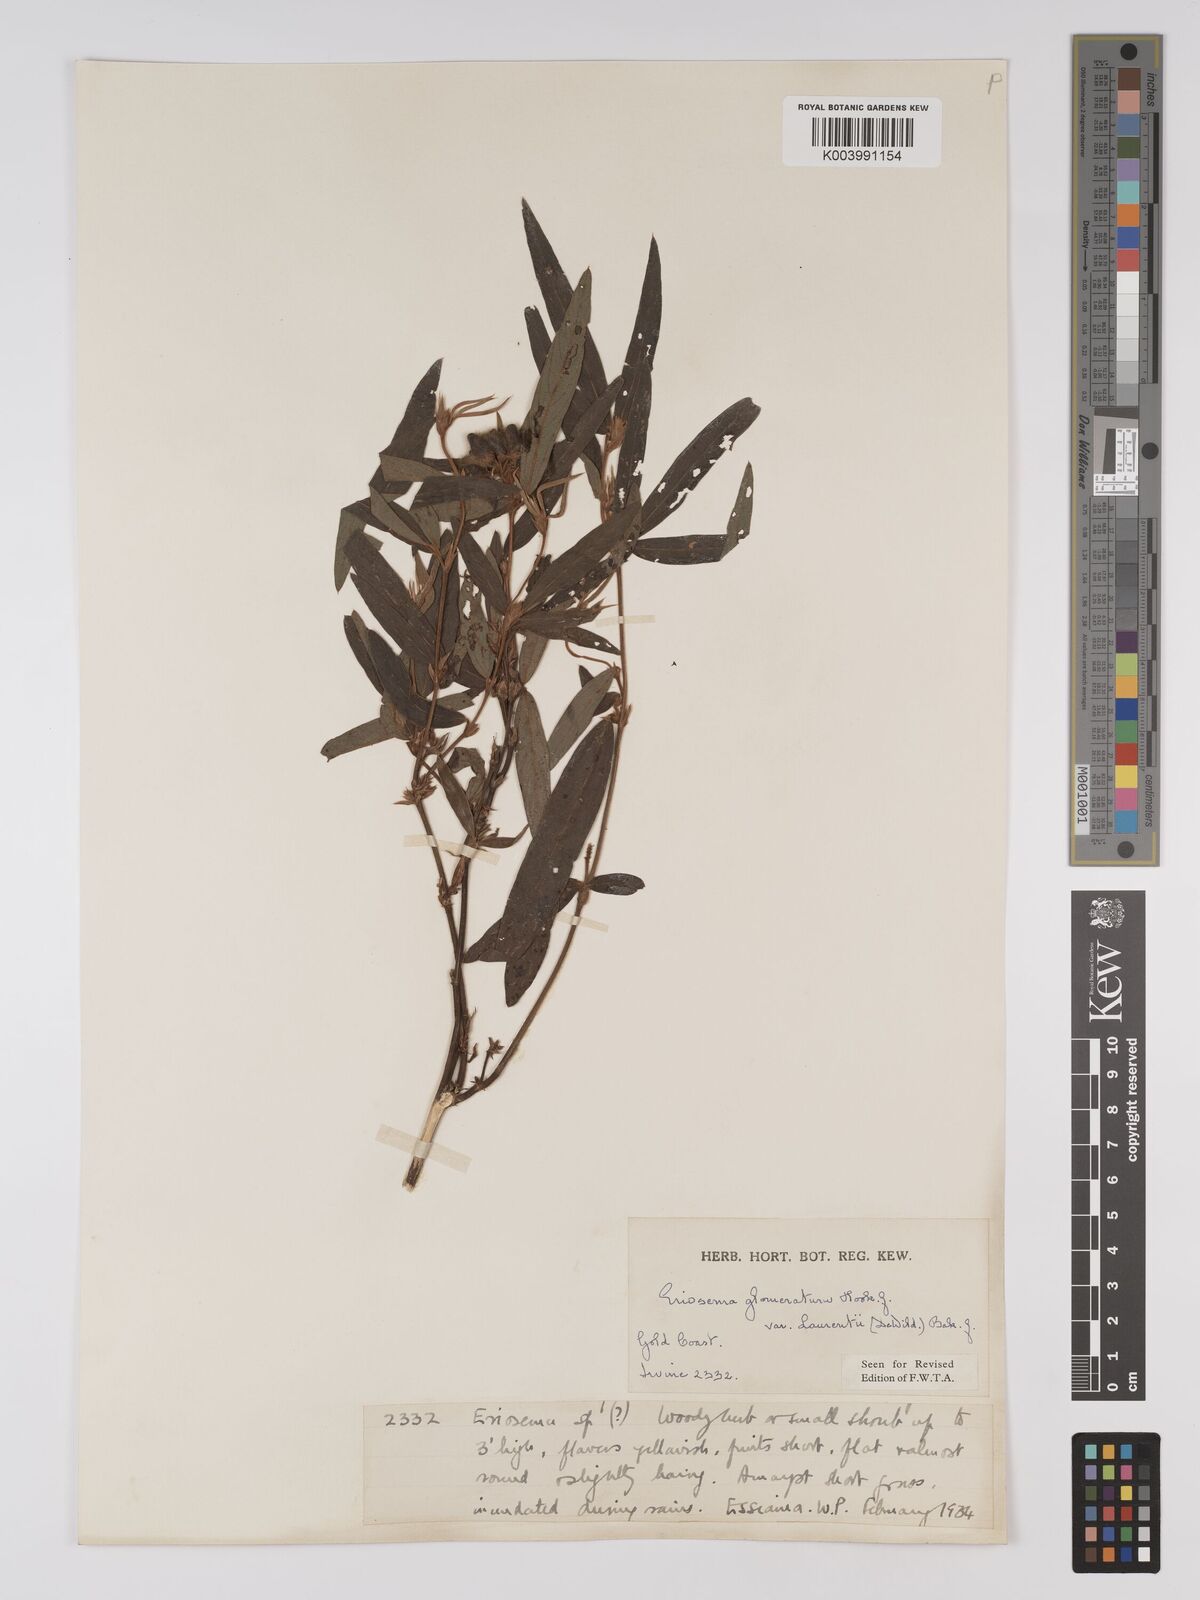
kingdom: Plantae
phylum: Tracheophyta
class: Magnoliopsida
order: Fabales
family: Fabaceae
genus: Eriosema
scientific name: Eriosema glomeratum
